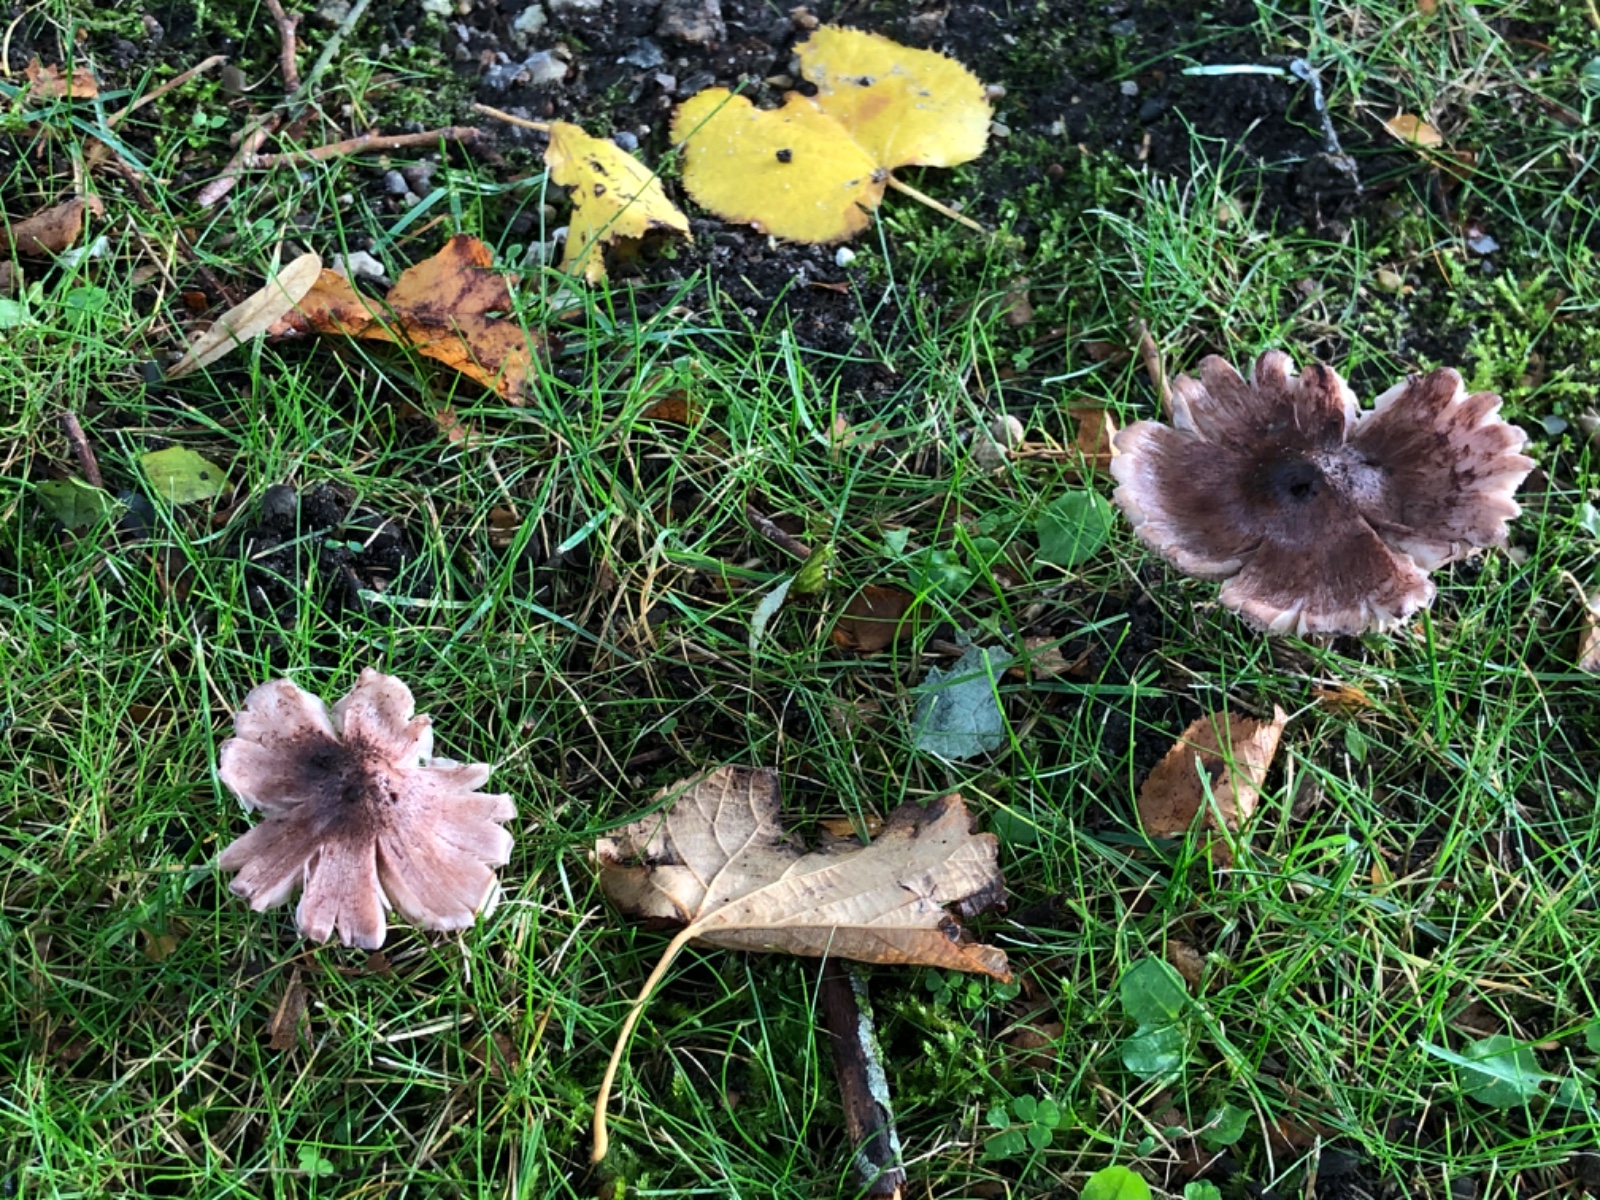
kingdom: Fungi
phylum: Basidiomycota
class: Agaricomycetes
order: Agaricales
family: Inocybaceae
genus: Inosperma
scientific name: Inosperma adaequatum
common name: vinrød trævlhat
